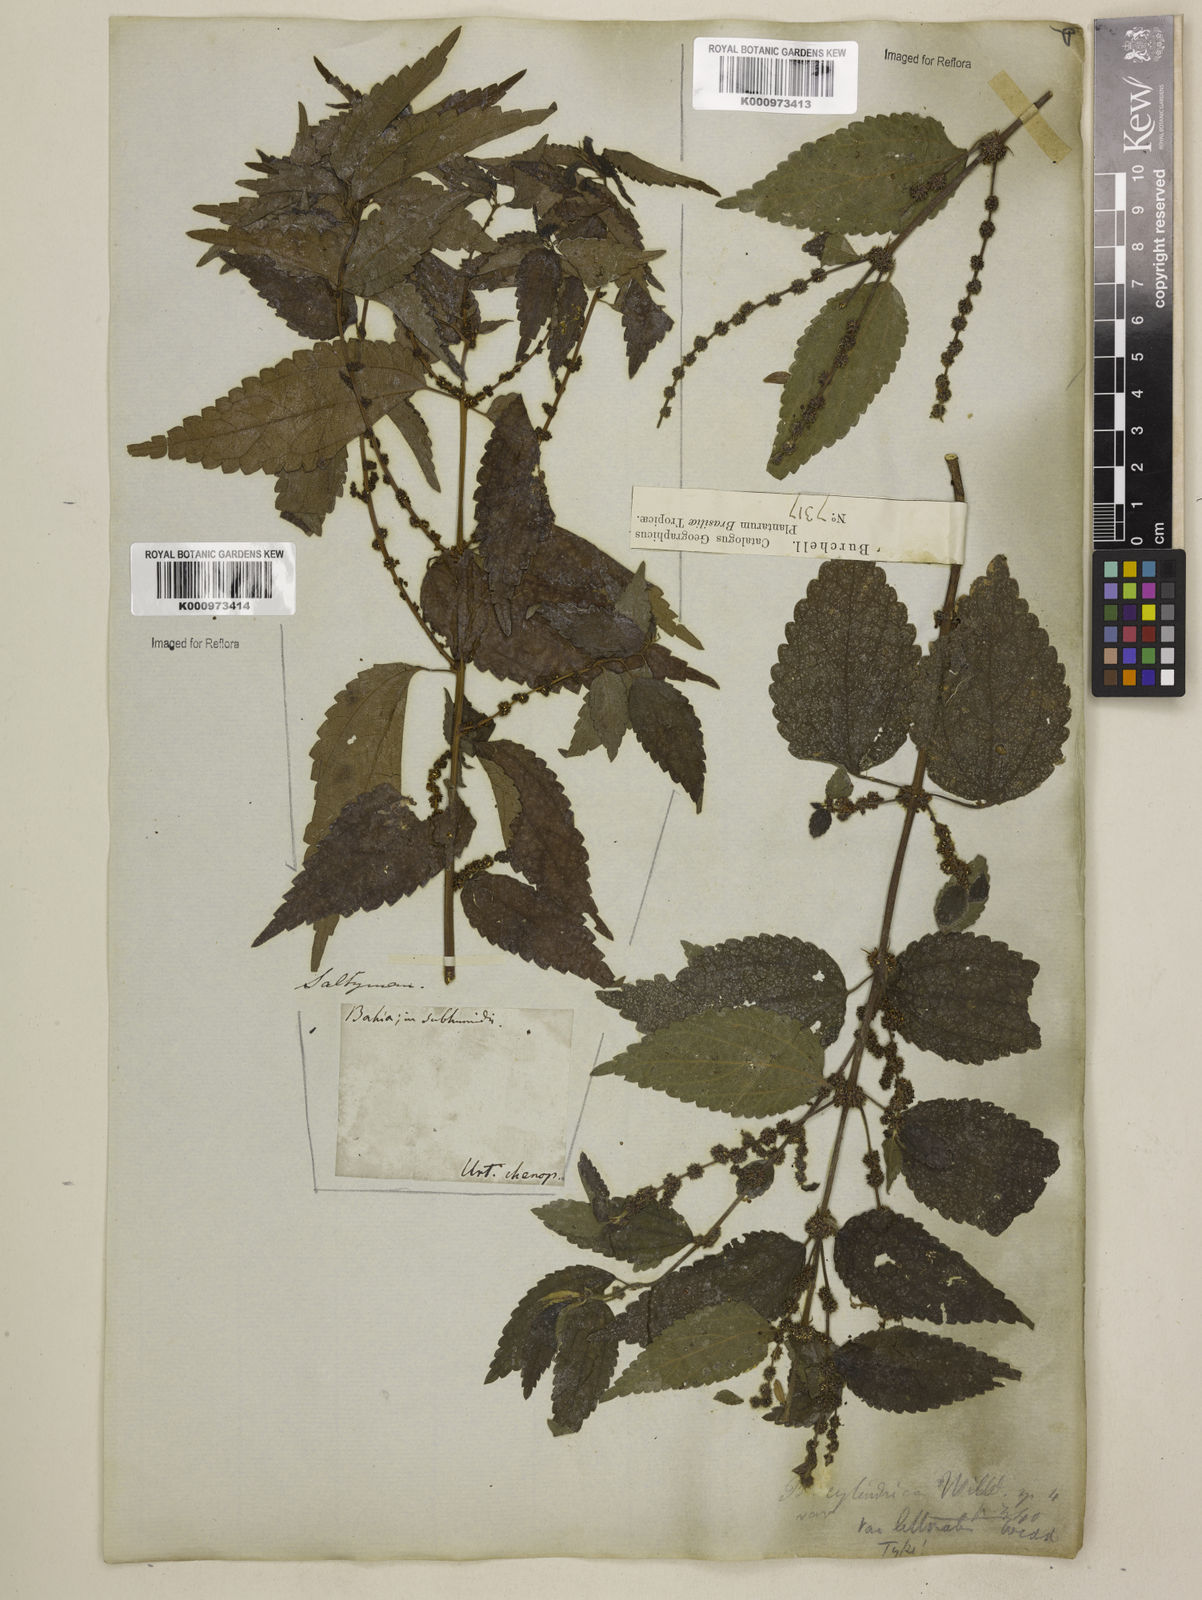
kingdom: Plantae
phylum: Tracheophyta
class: Magnoliopsida
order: Rosales
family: Urticaceae
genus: Boehmeria
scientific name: Boehmeria cylindrica
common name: Bog-hemp
